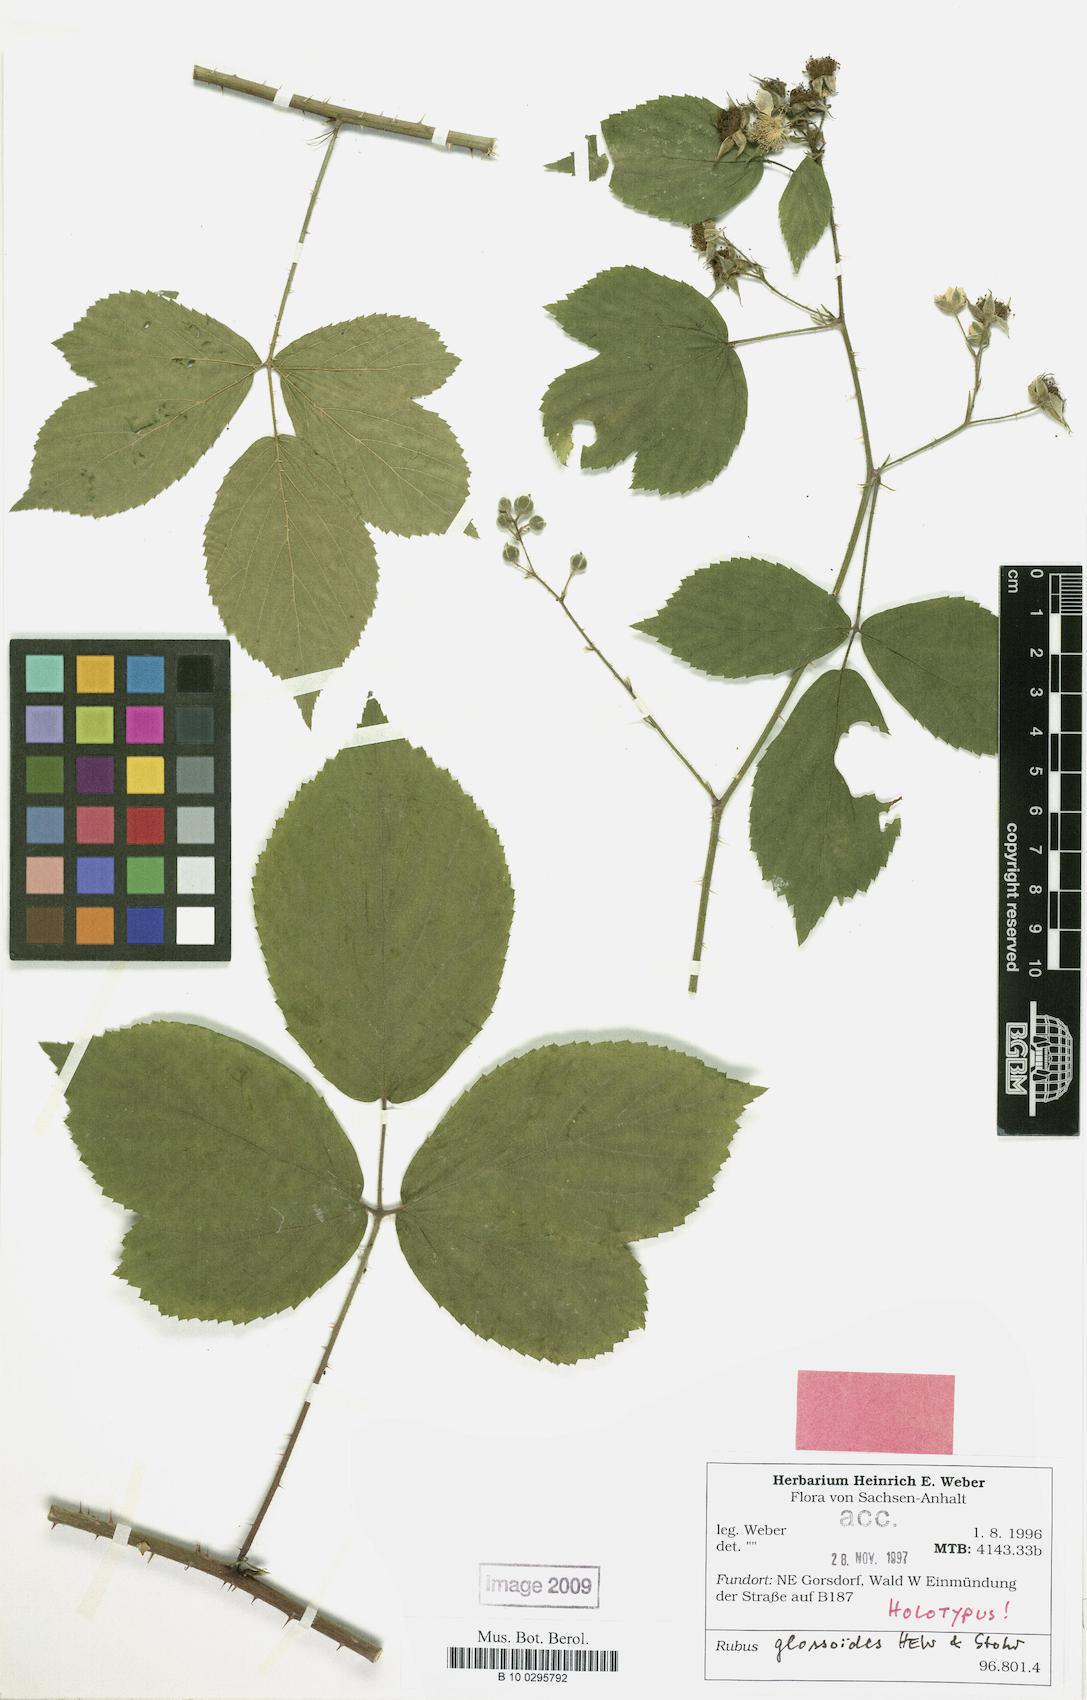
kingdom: Plantae
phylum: Tracheophyta
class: Magnoliopsida
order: Rosales
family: Rosaceae
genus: Rubus
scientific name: Rubus glossoides
